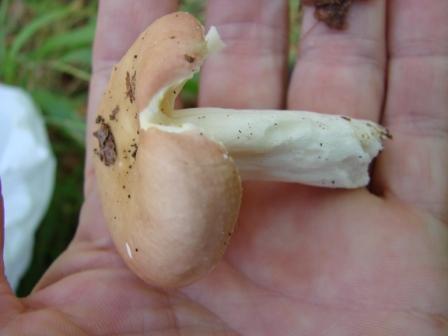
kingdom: Fungi
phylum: Basidiomycota
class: Agaricomycetes
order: Russulales
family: Russulaceae
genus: Russula
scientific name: Russula veternosa
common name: blødkødet skørhat
